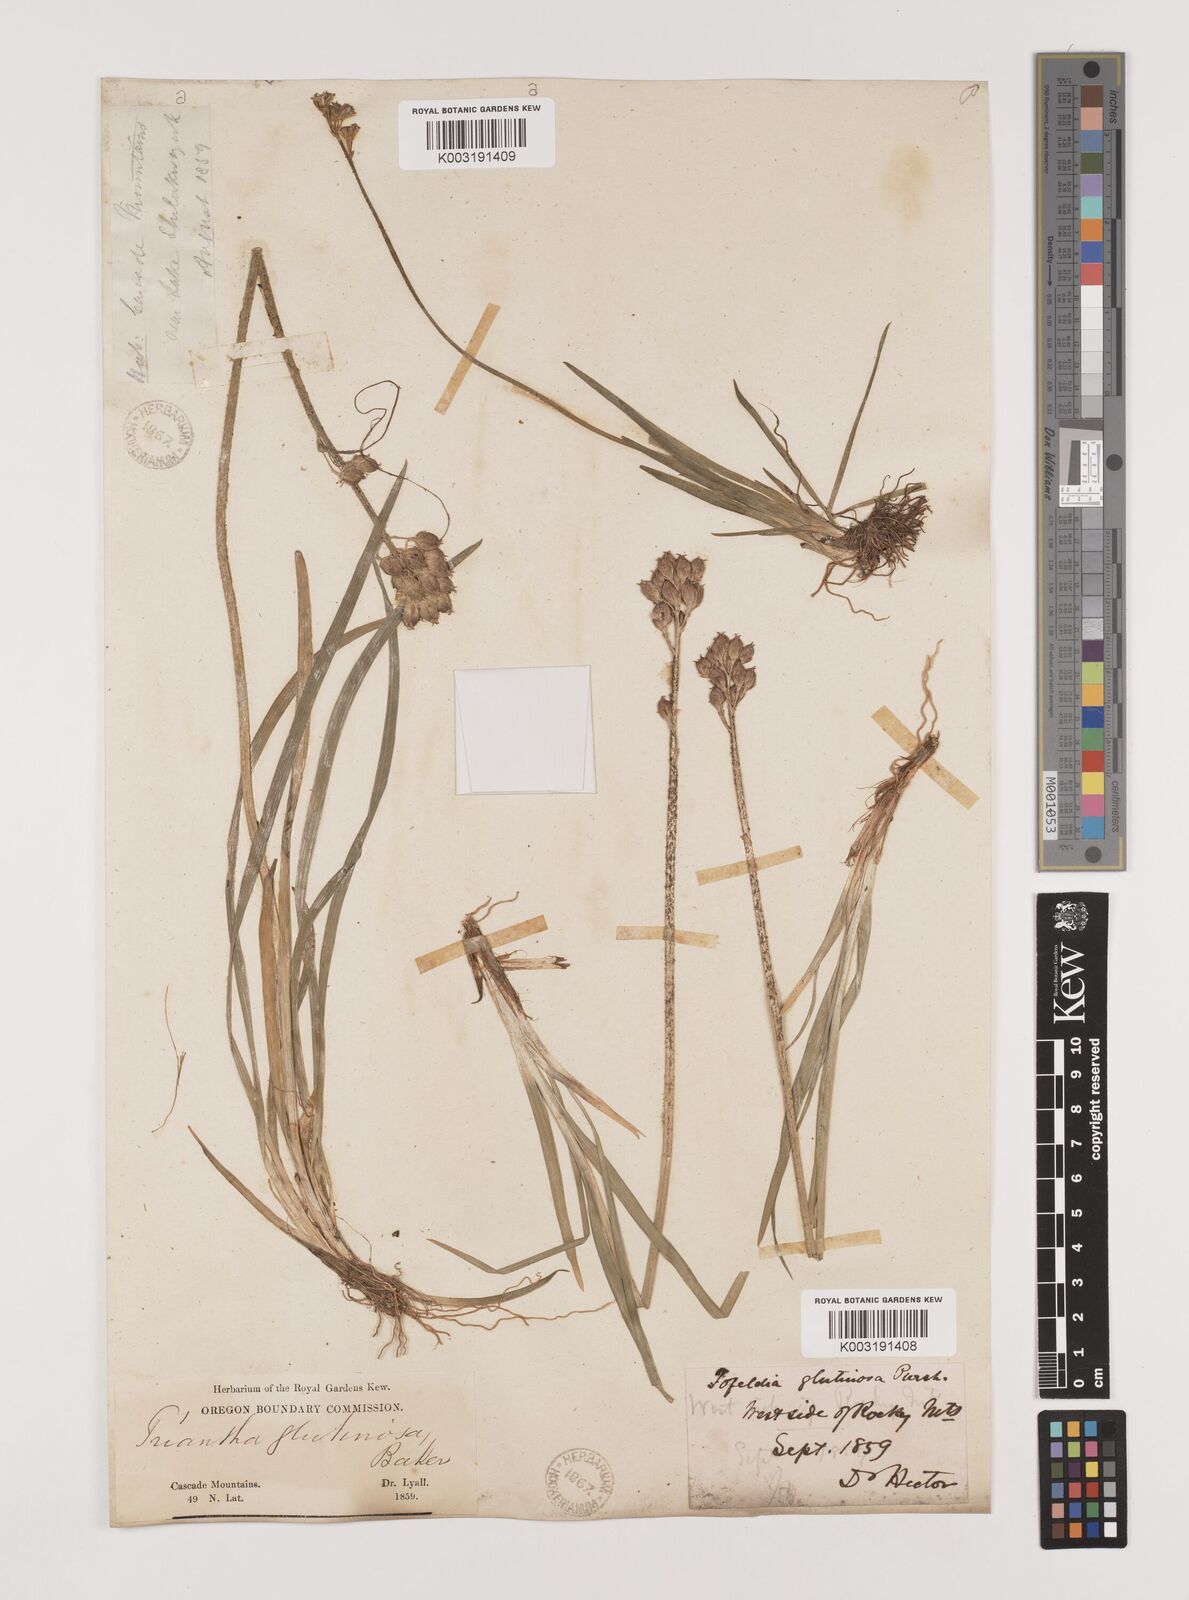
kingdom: Plantae
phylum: Tracheophyta
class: Liliopsida
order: Alismatales
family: Tofieldiaceae
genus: Triantha
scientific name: Triantha glutinosa
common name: Glutinous tofieldia
